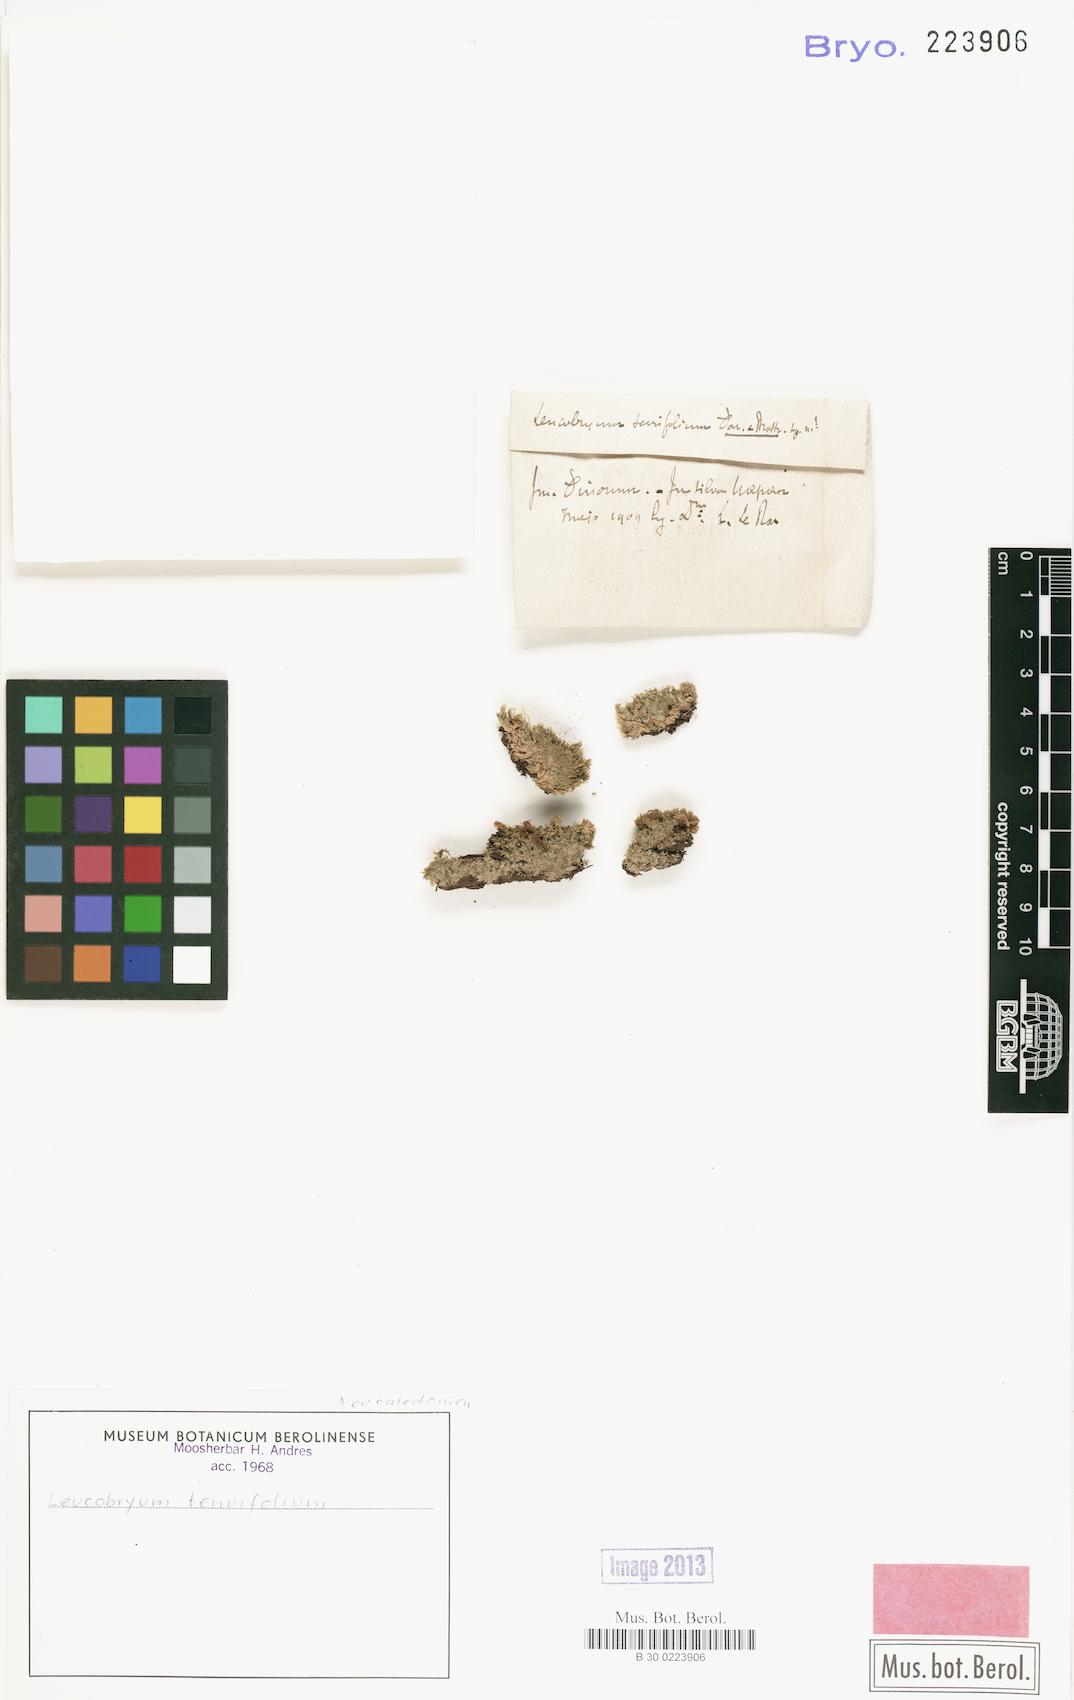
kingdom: Plantae
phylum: Bryophyta
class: Bryopsida
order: Dicranales
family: Leucobryaceae
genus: Leucobryum
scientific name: Leucobryum crispum
